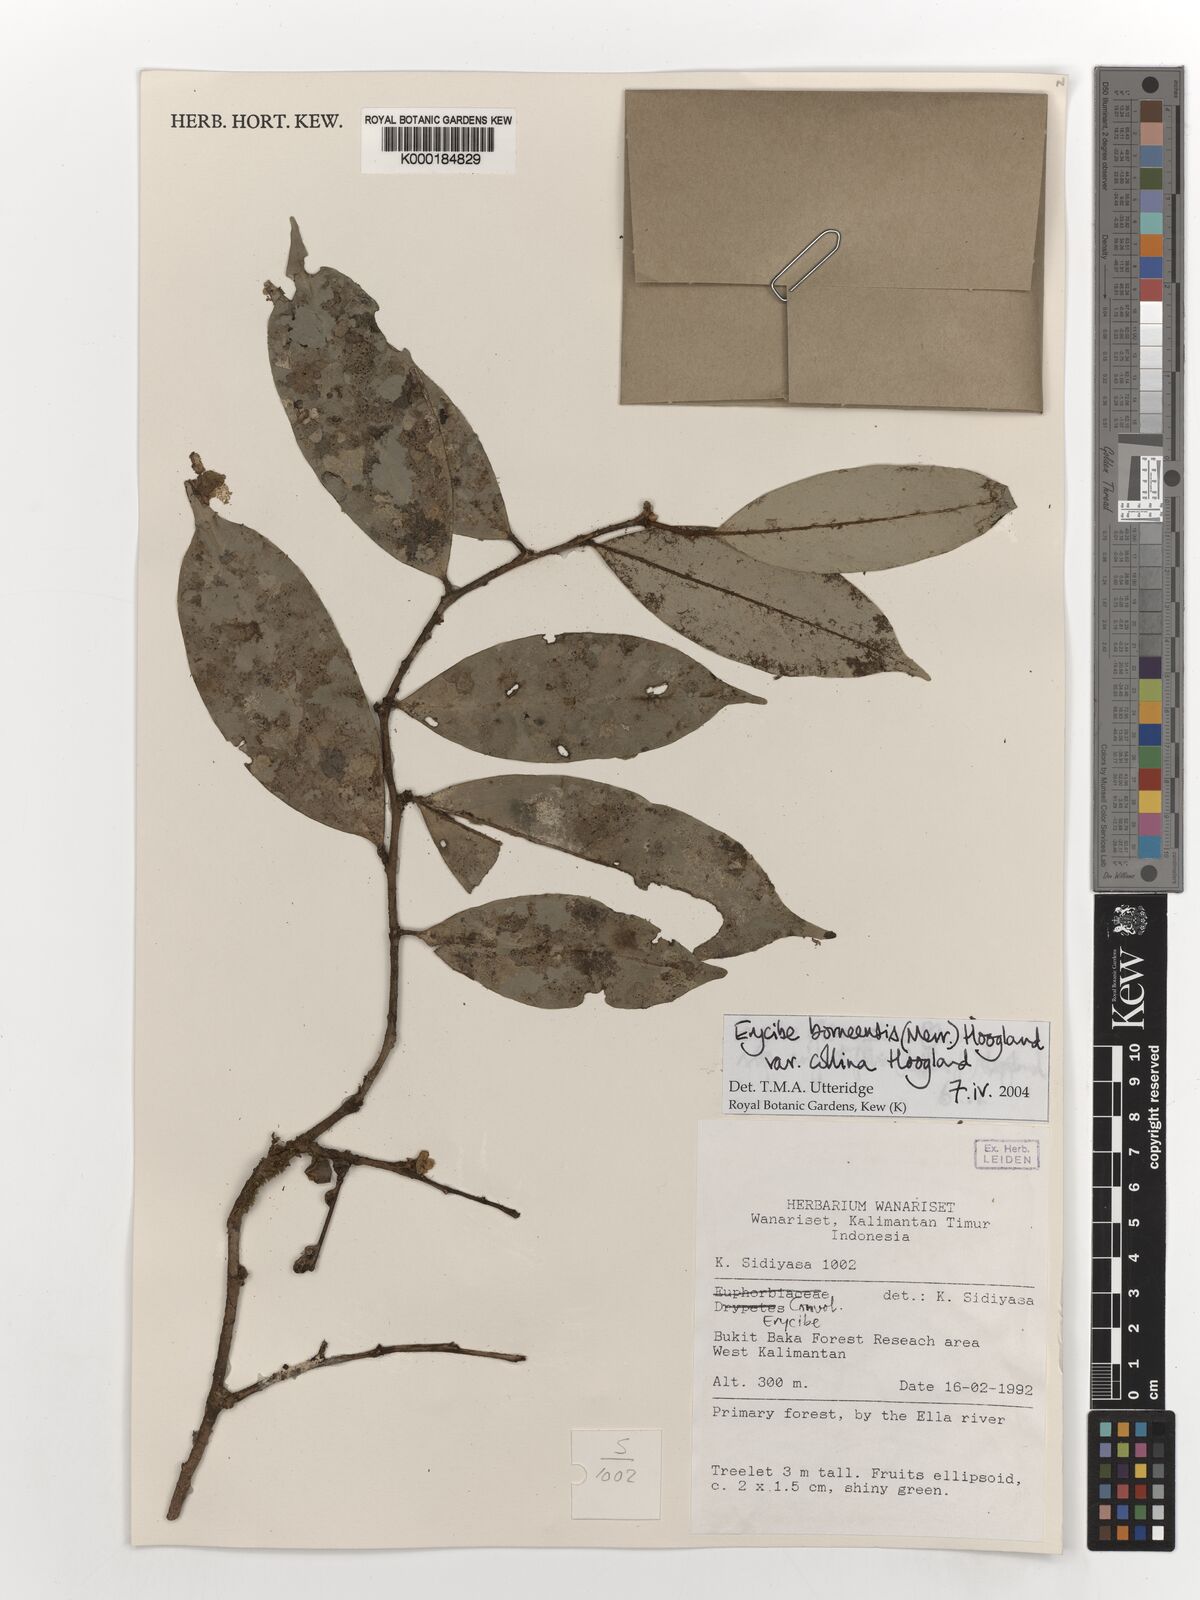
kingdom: Plantae
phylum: Tracheophyta
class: Magnoliopsida
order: Solanales
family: Convolvulaceae
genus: Erycibe
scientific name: Erycibe borneensis
